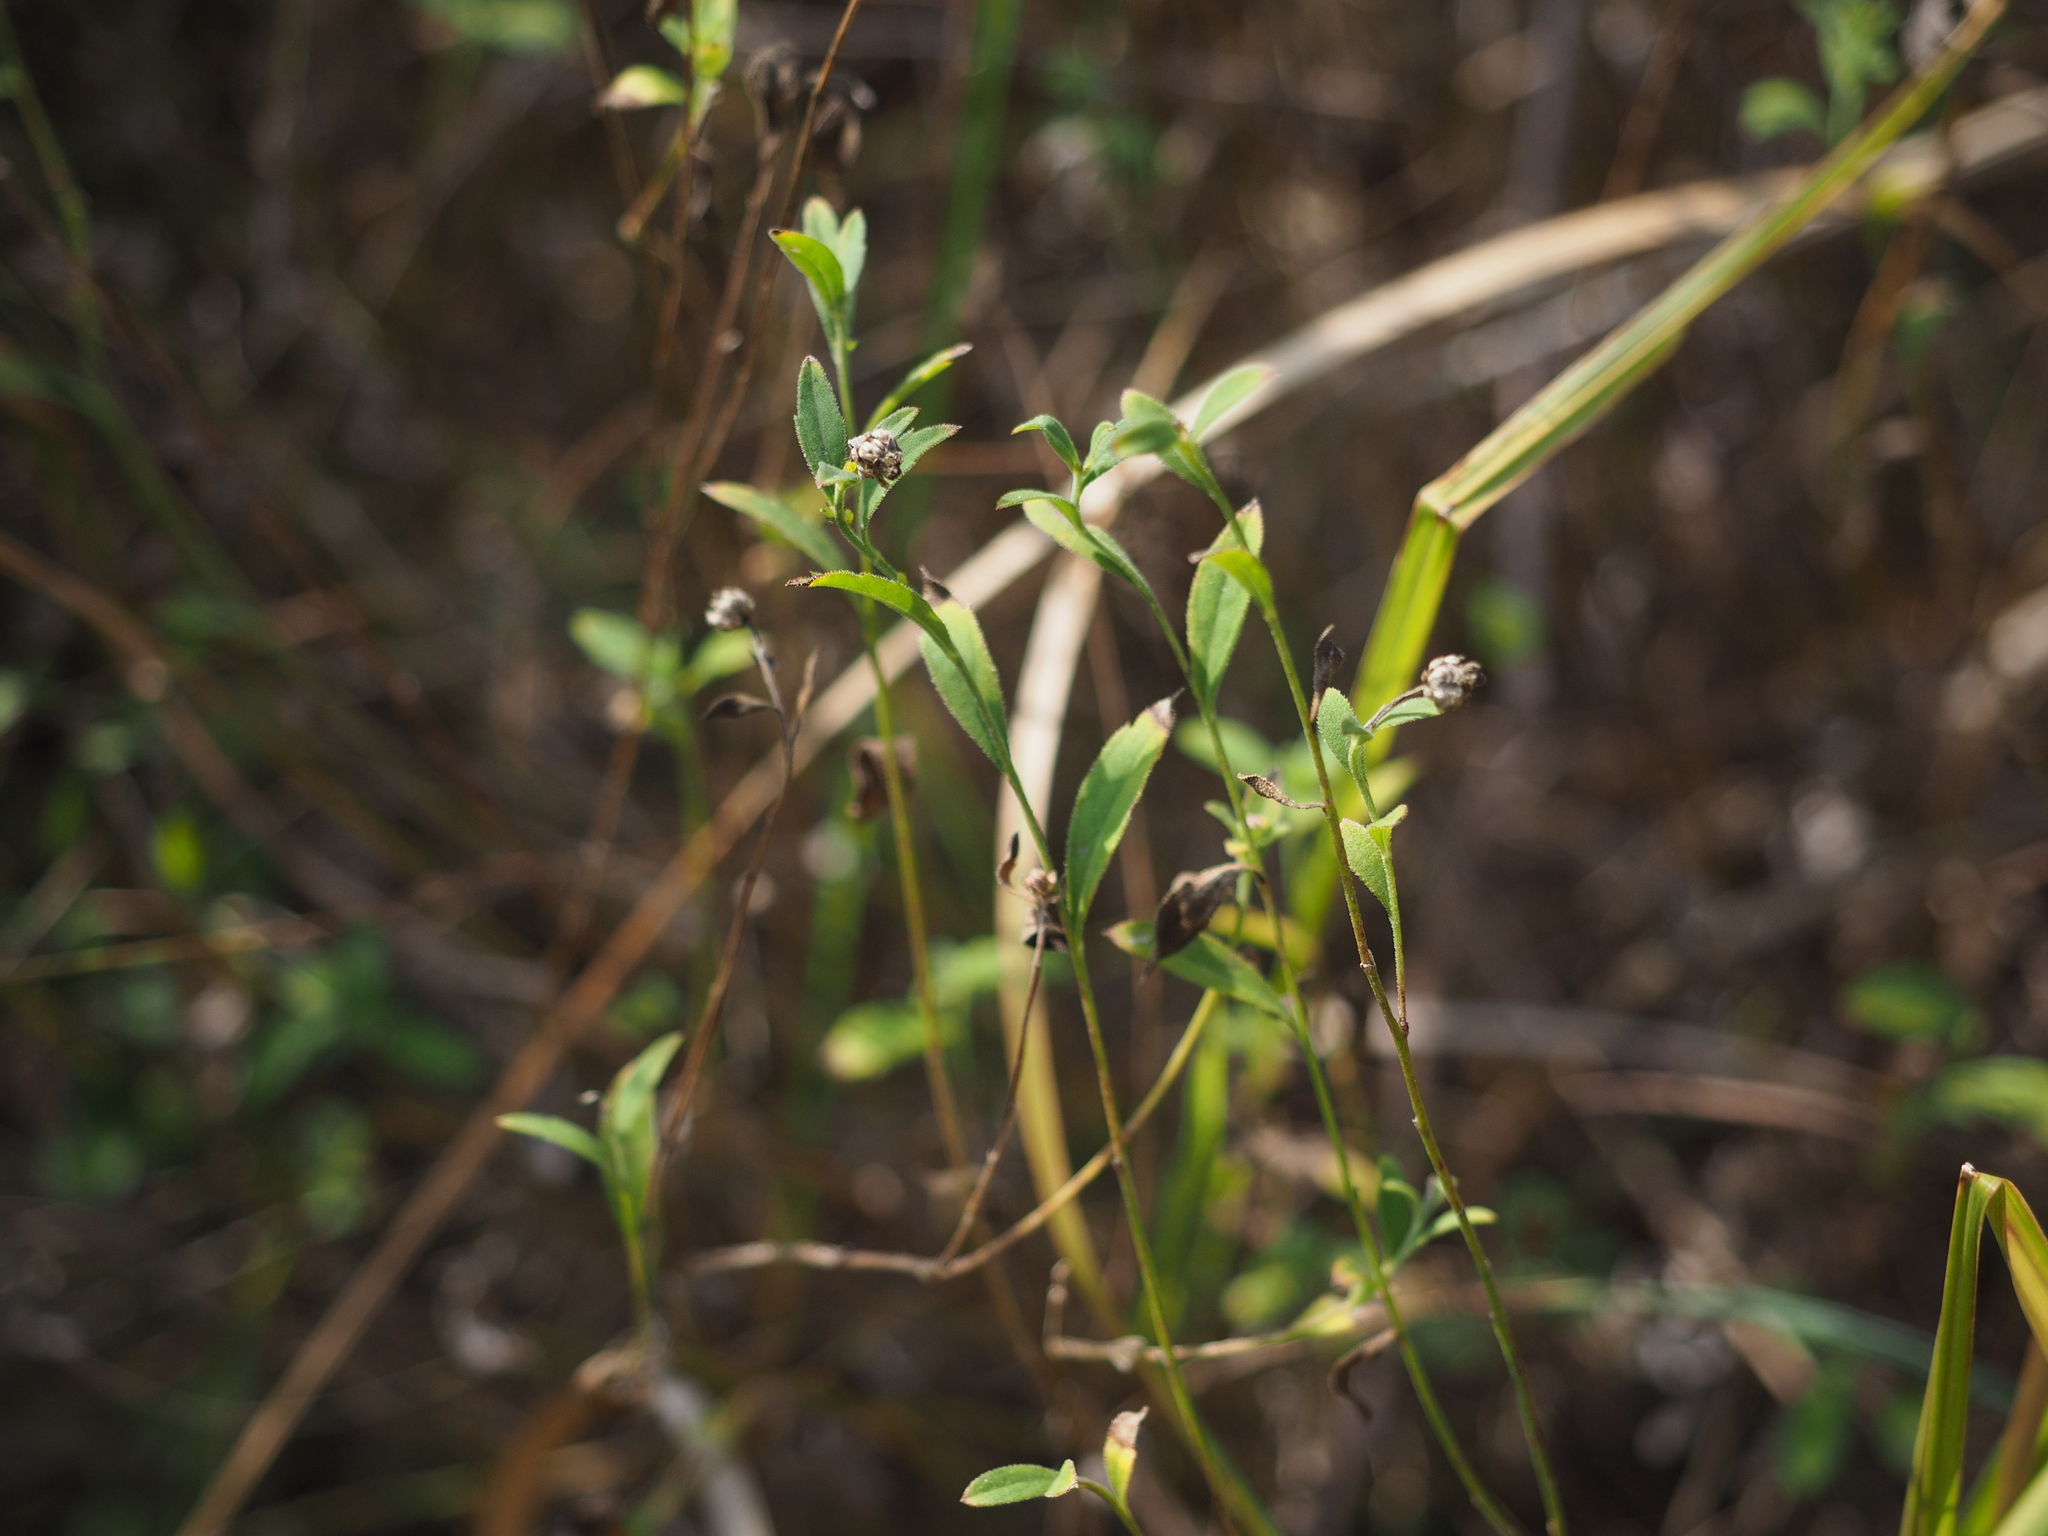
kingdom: Plantae
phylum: Tracheophyta
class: Magnoliopsida
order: Asterales
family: Asteraceae
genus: Aster
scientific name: Aster shimadae
